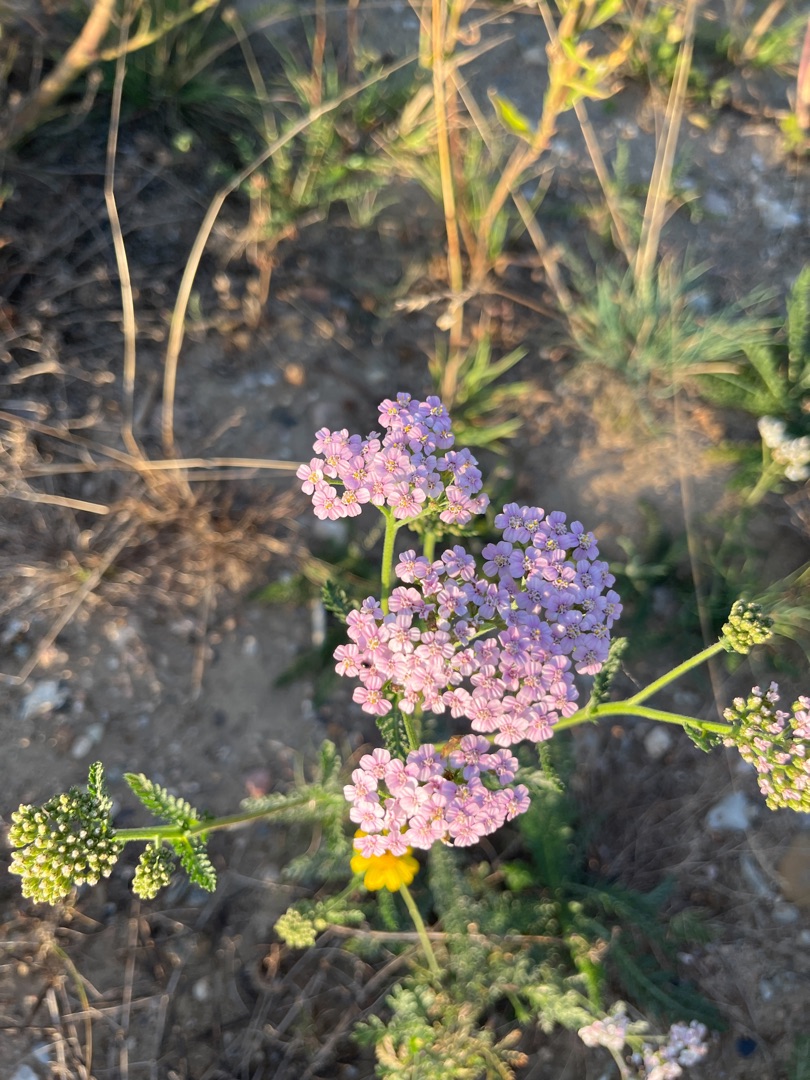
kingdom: Plantae
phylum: Tracheophyta
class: Magnoliopsida
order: Asterales
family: Asteraceae
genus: Achillea
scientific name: Achillea millefolium
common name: Almindelig røllike
